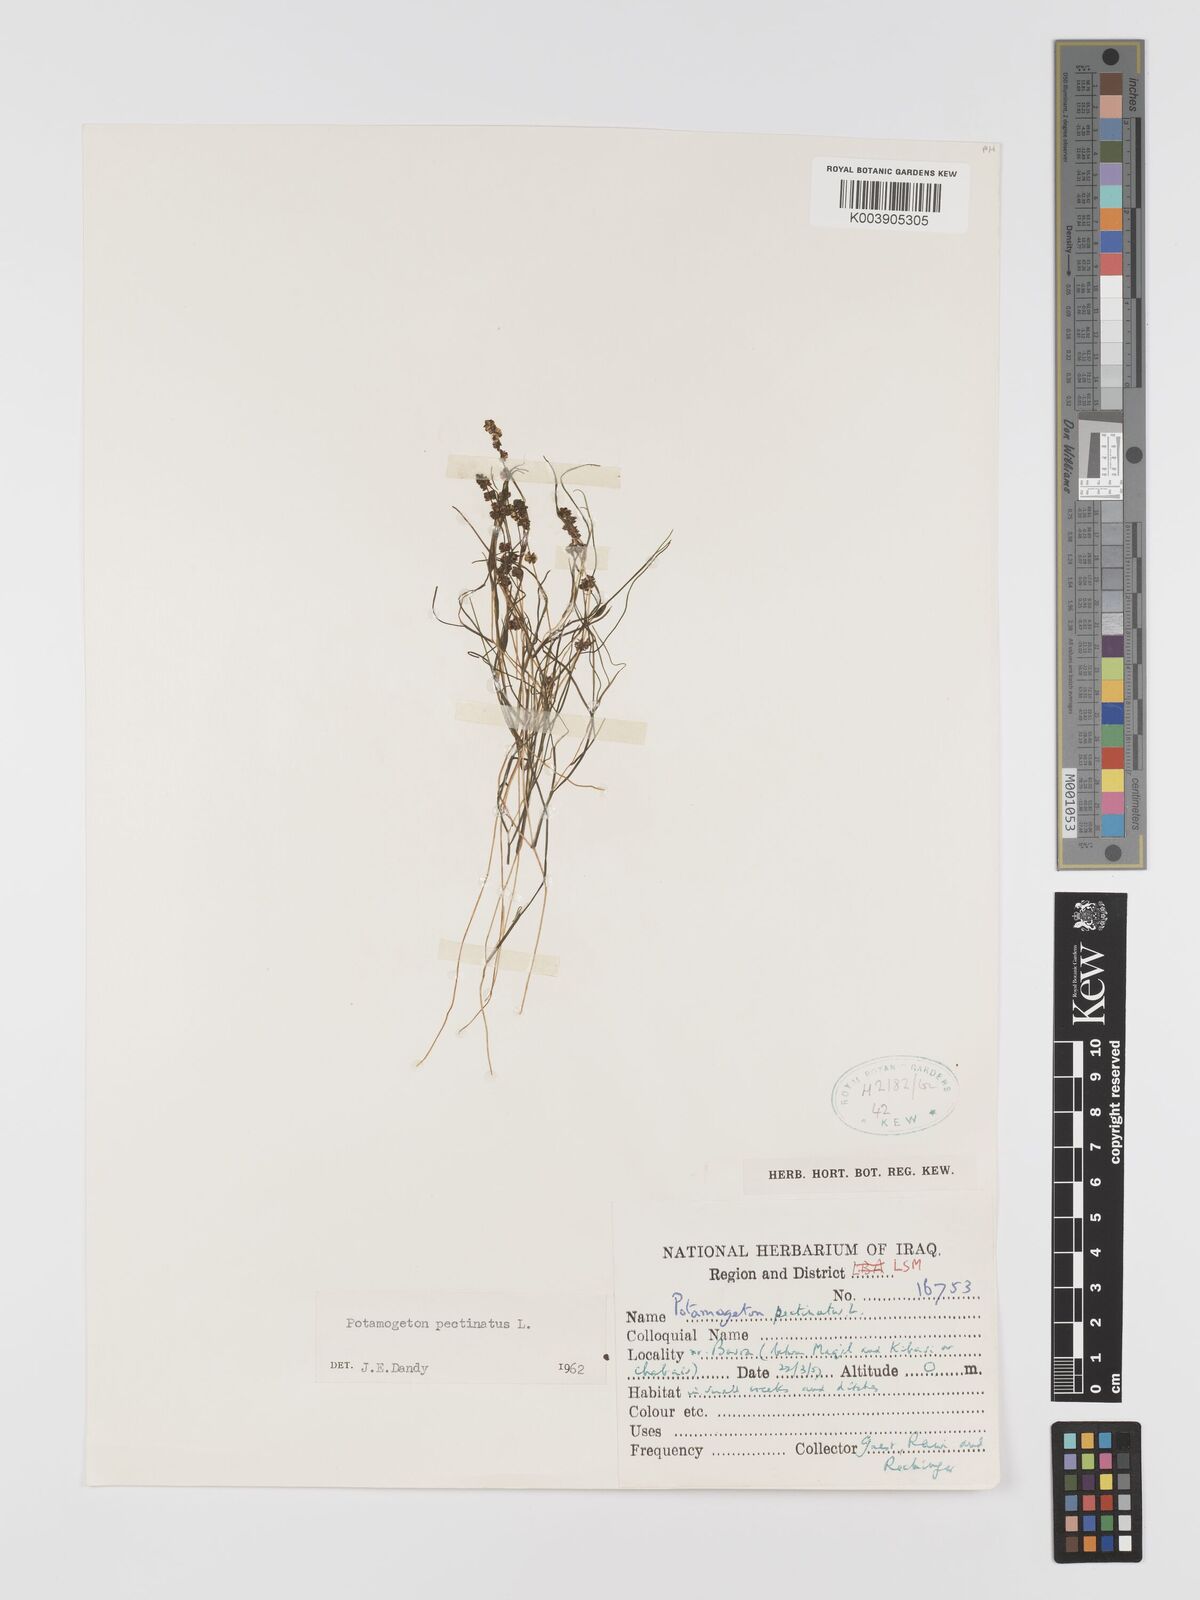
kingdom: Plantae
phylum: Tracheophyta
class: Liliopsida
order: Alismatales
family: Potamogetonaceae
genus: Stuckenia
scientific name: Stuckenia pectinata
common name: Sago pondweed
